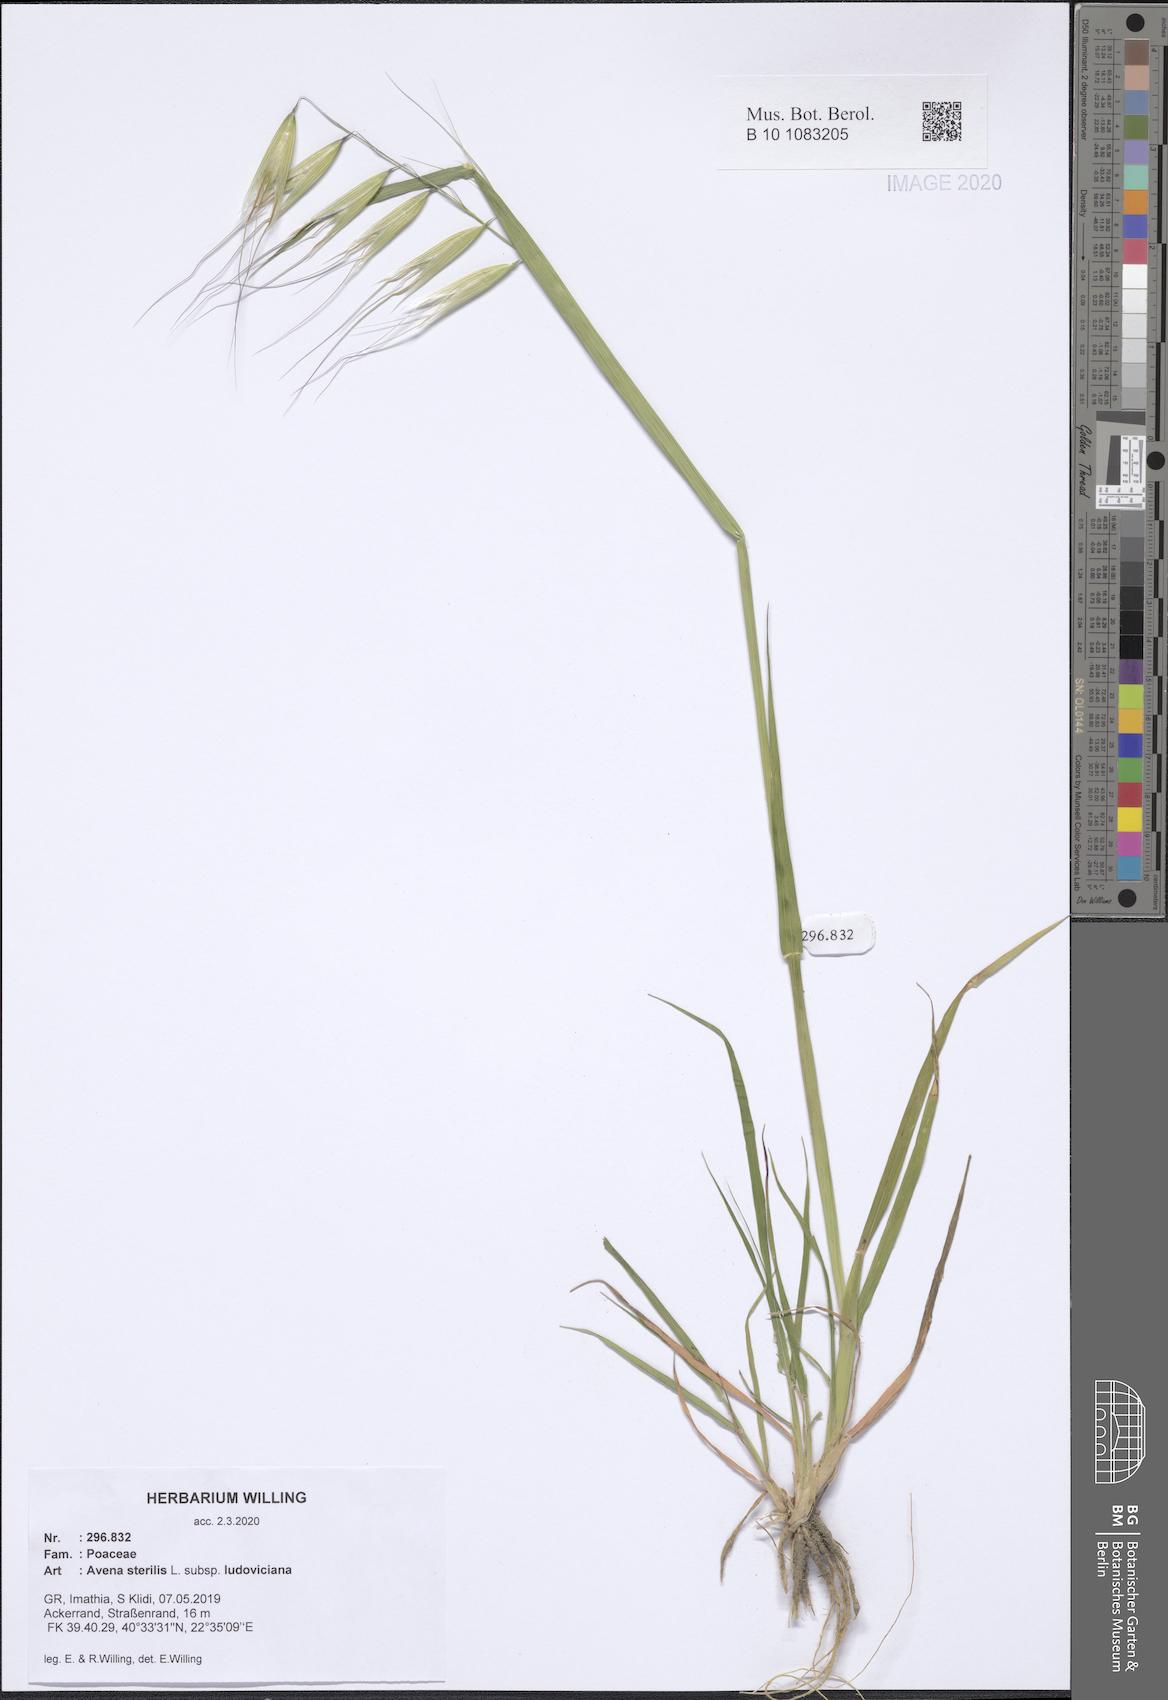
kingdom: Plantae
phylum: Tracheophyta
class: Liliopsida
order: Poales
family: Poaceae
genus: Avena
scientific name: Avena sterilis
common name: Animated oat
